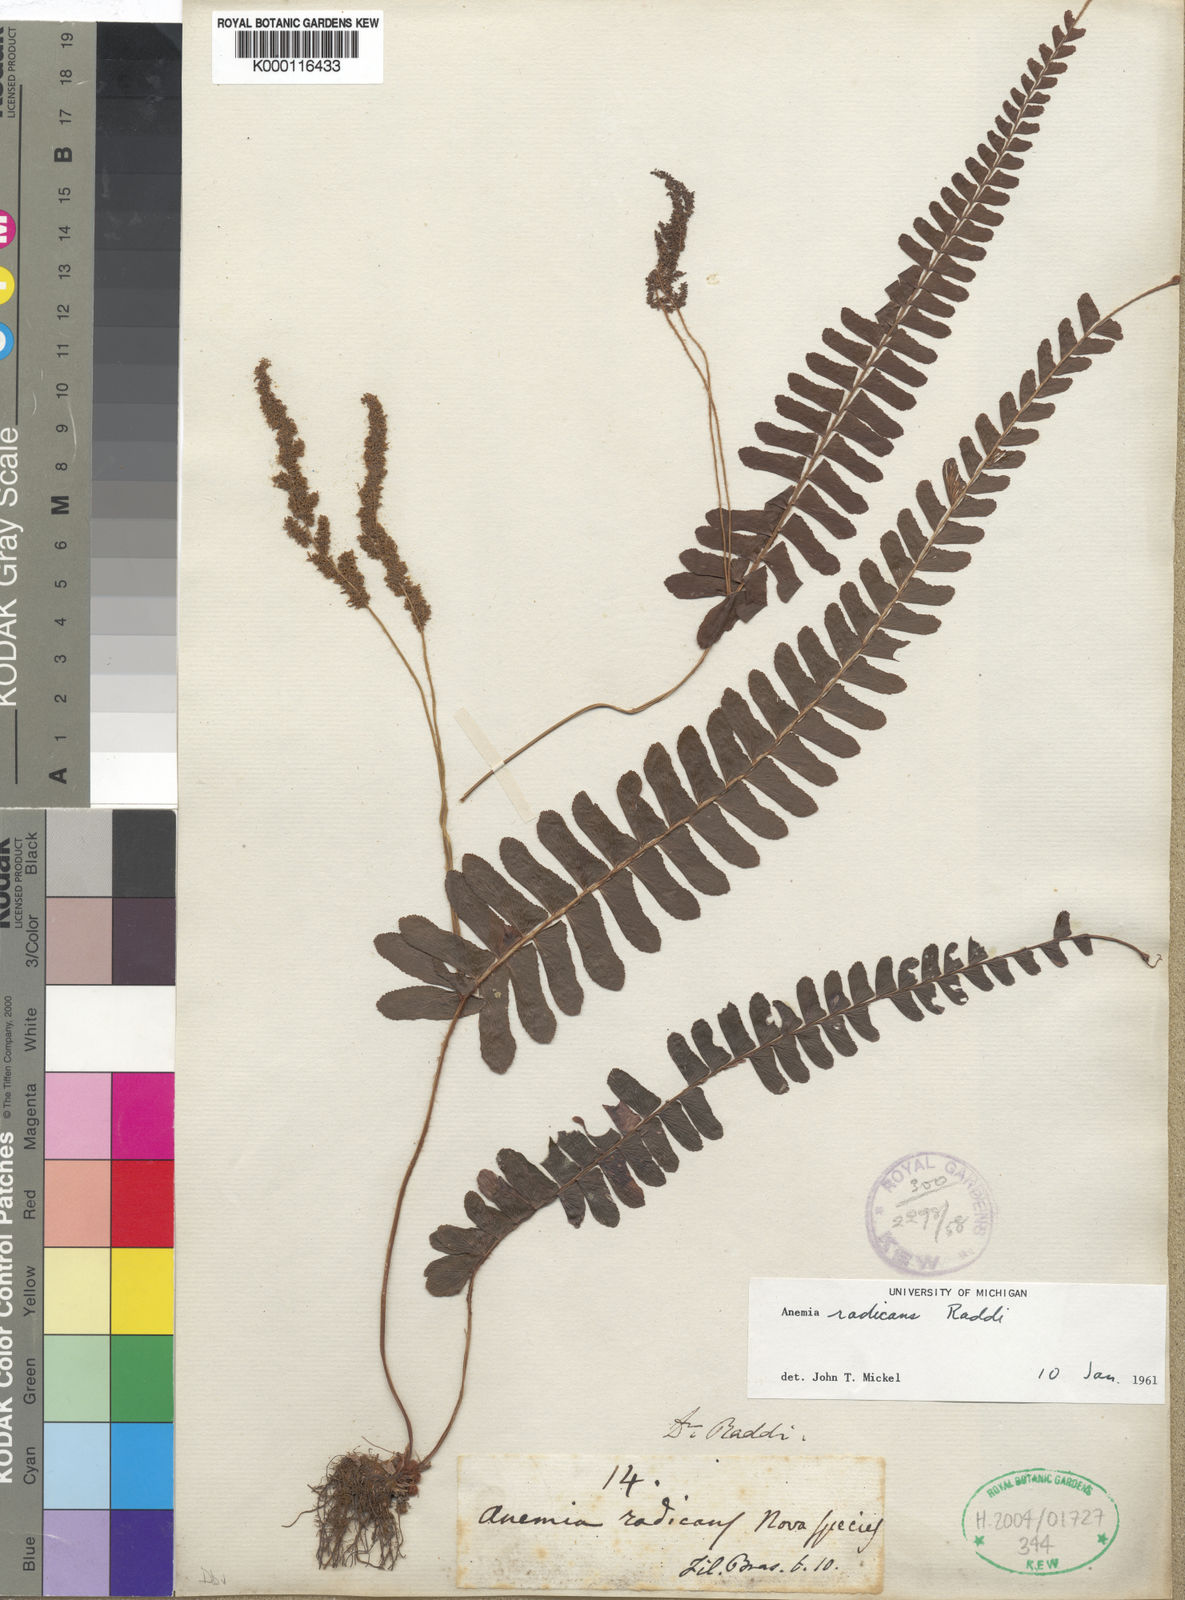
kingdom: Plantae
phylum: Tracheophyta
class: Polypodiopsida
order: Schizaeales
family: Anemiaceae
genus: Anemia
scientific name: Anemia blechnoides
